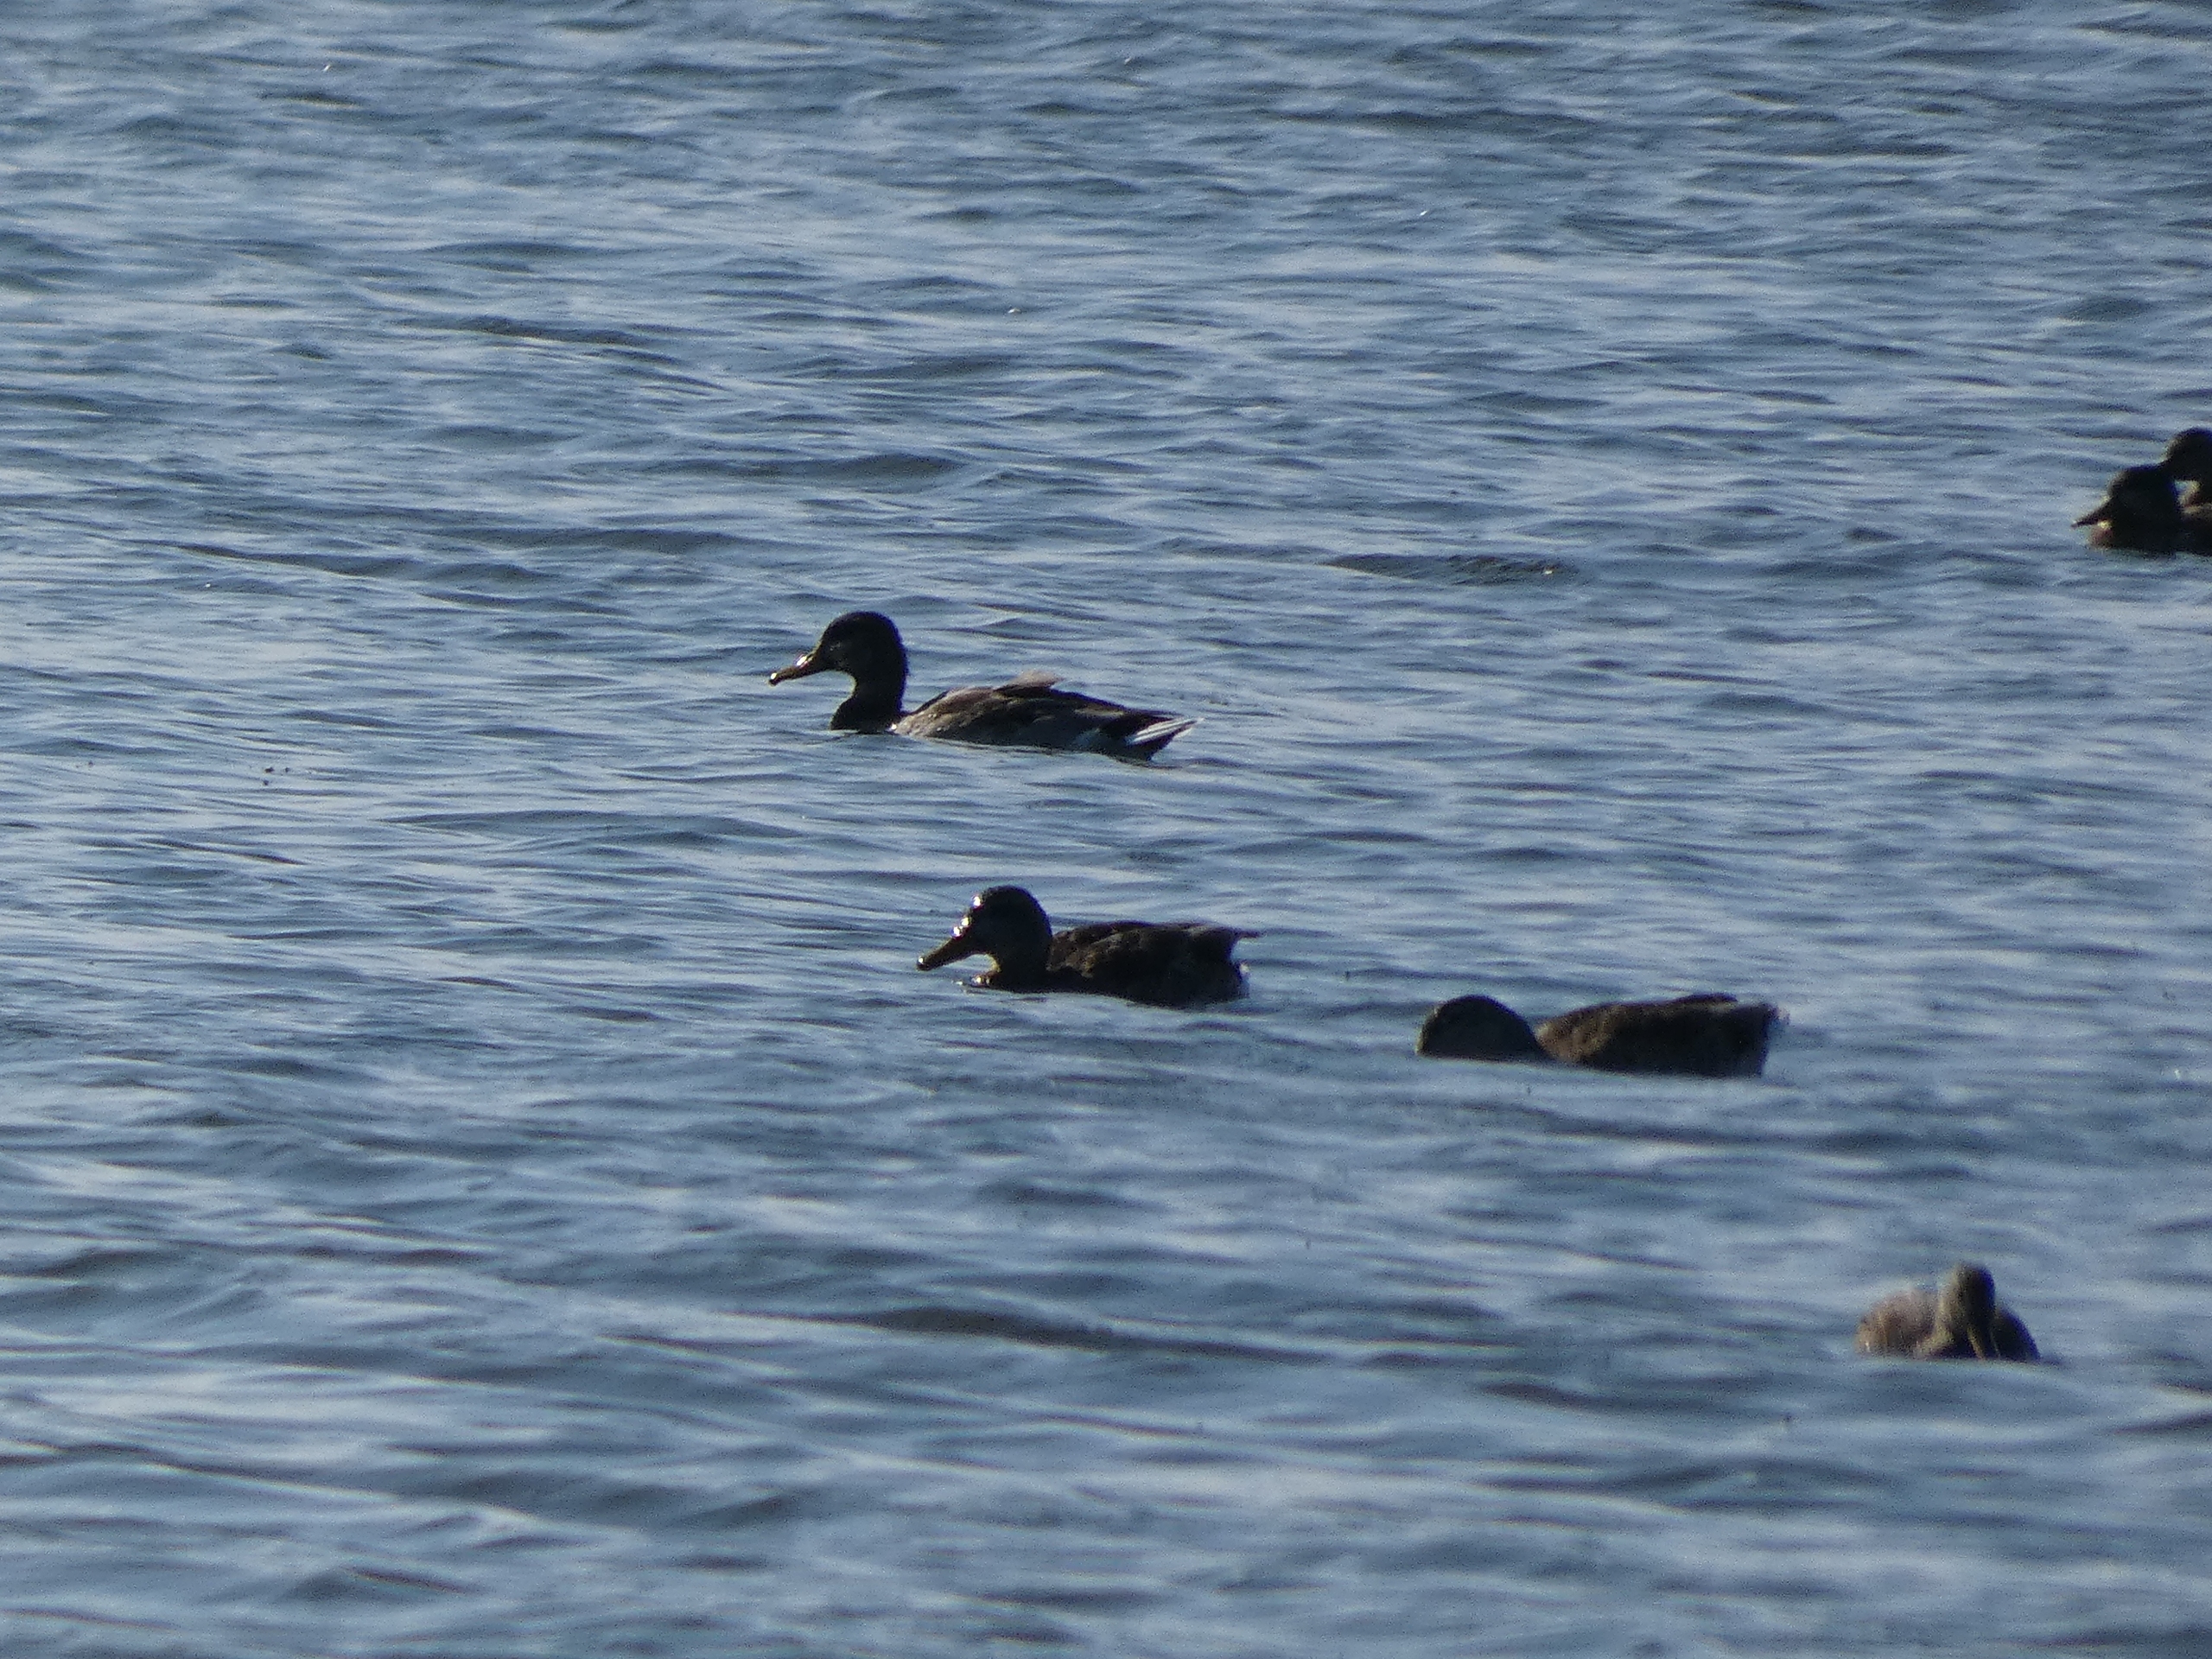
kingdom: Animalia
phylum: Chordata
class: Aves
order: Anseriformes
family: Anatidae
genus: Anas
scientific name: Anas platyrhynchos
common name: Gråand
